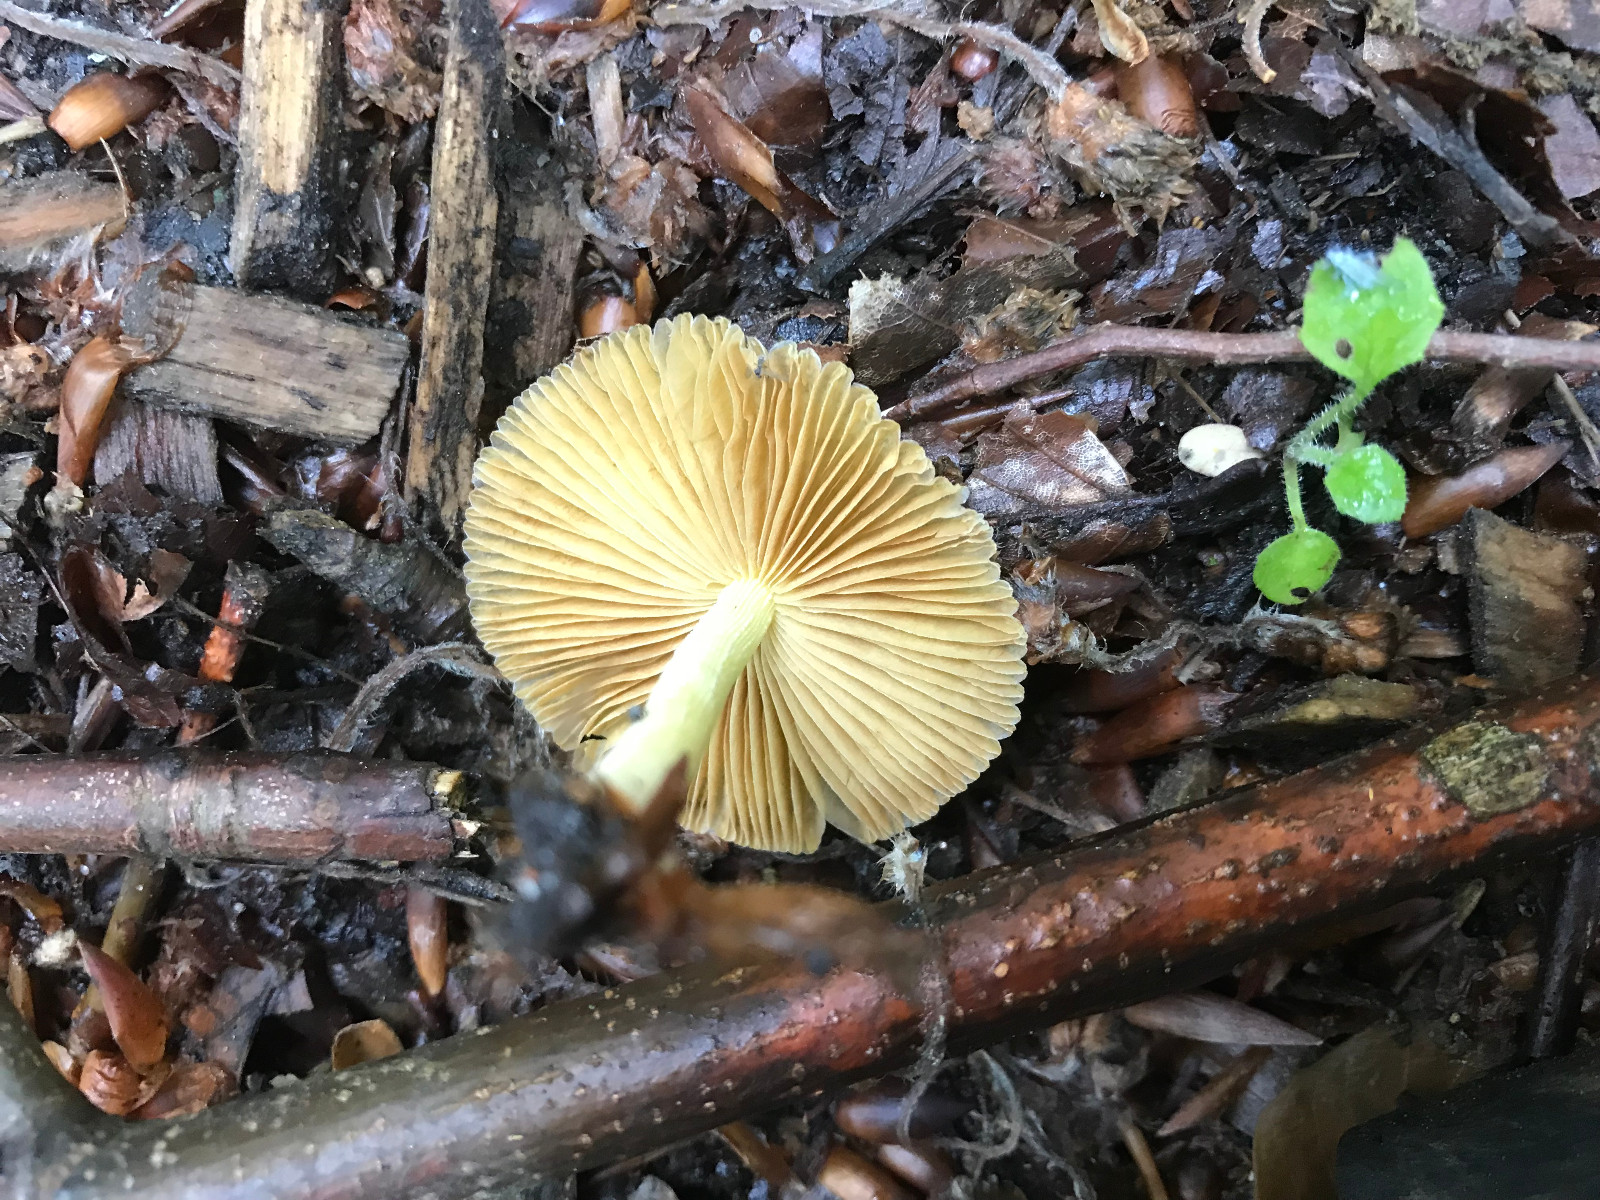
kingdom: Fungi
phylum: Basidiomycota
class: Agaricomycetes
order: Agaricales
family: Bolbitiaceae
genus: Bolbitius
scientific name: Bolbitius titubans
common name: almindelig gulhat
